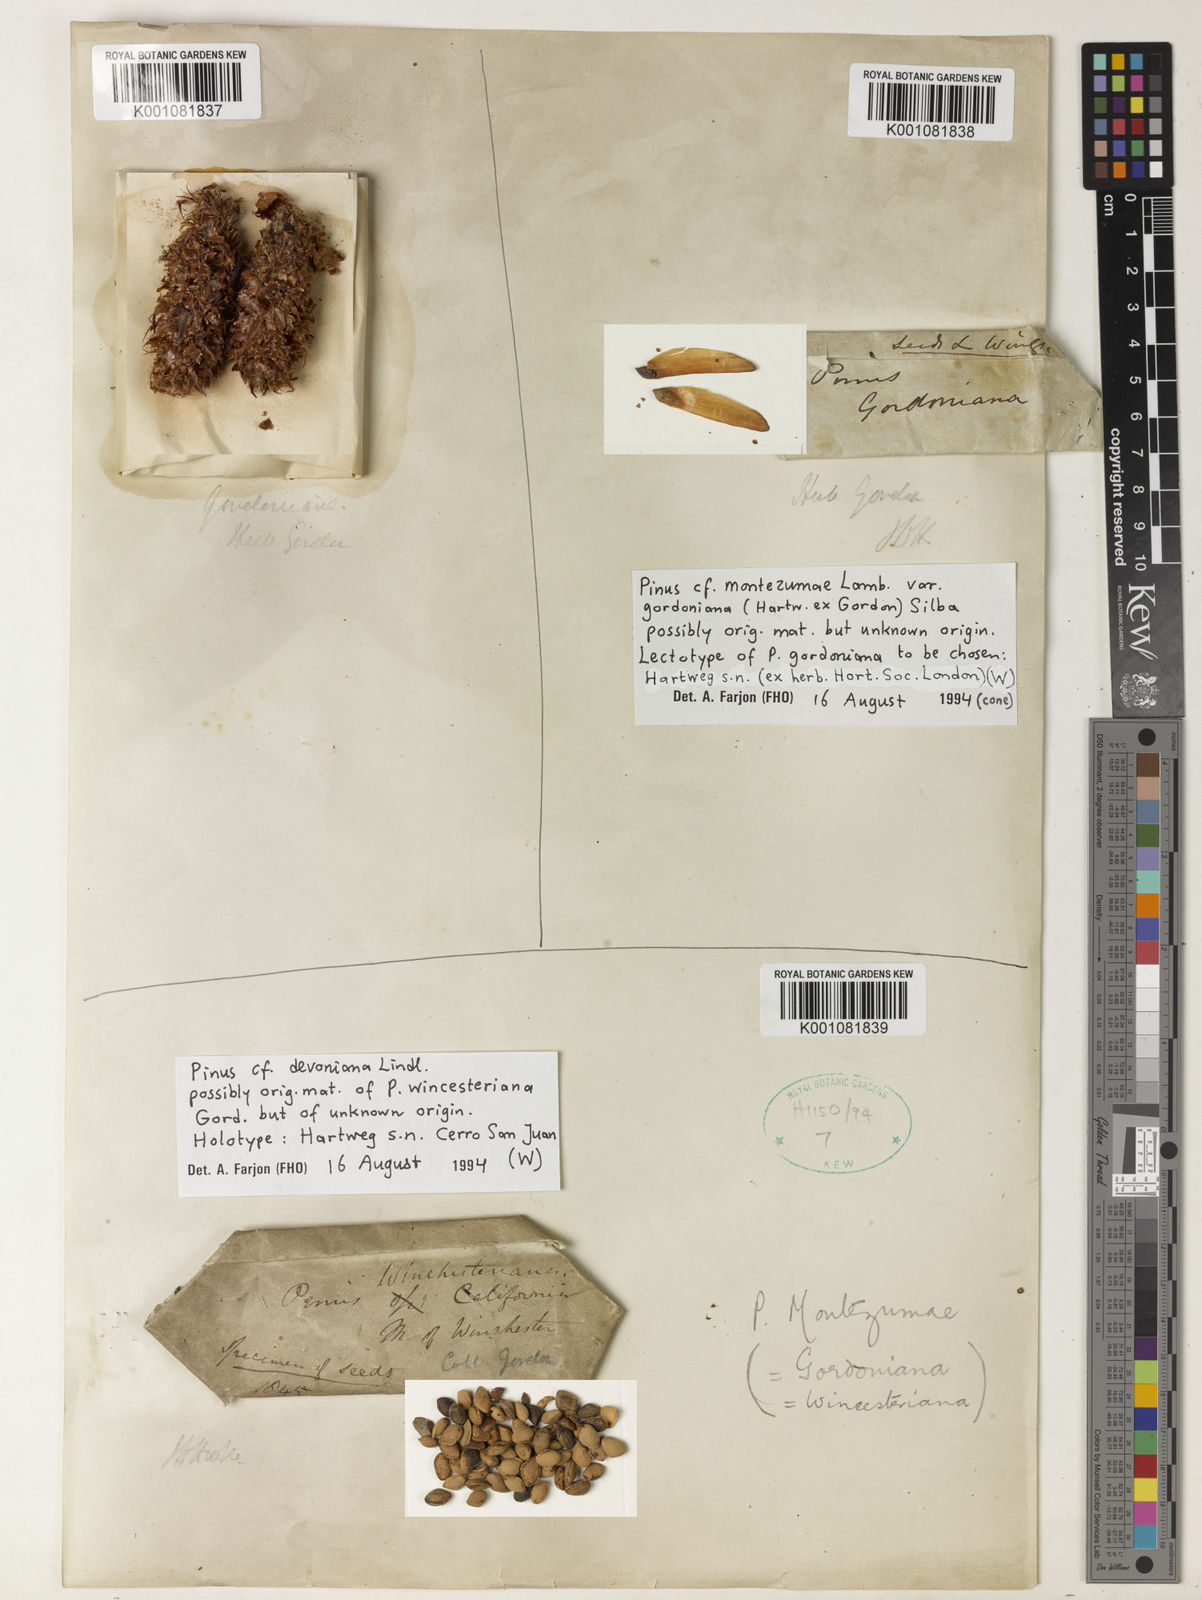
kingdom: Plantae
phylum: Tracheophyta
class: Pinopsida
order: Pinales
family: Pinaceae
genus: Pinus
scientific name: Pinus montezumae
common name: Montezuma pine
